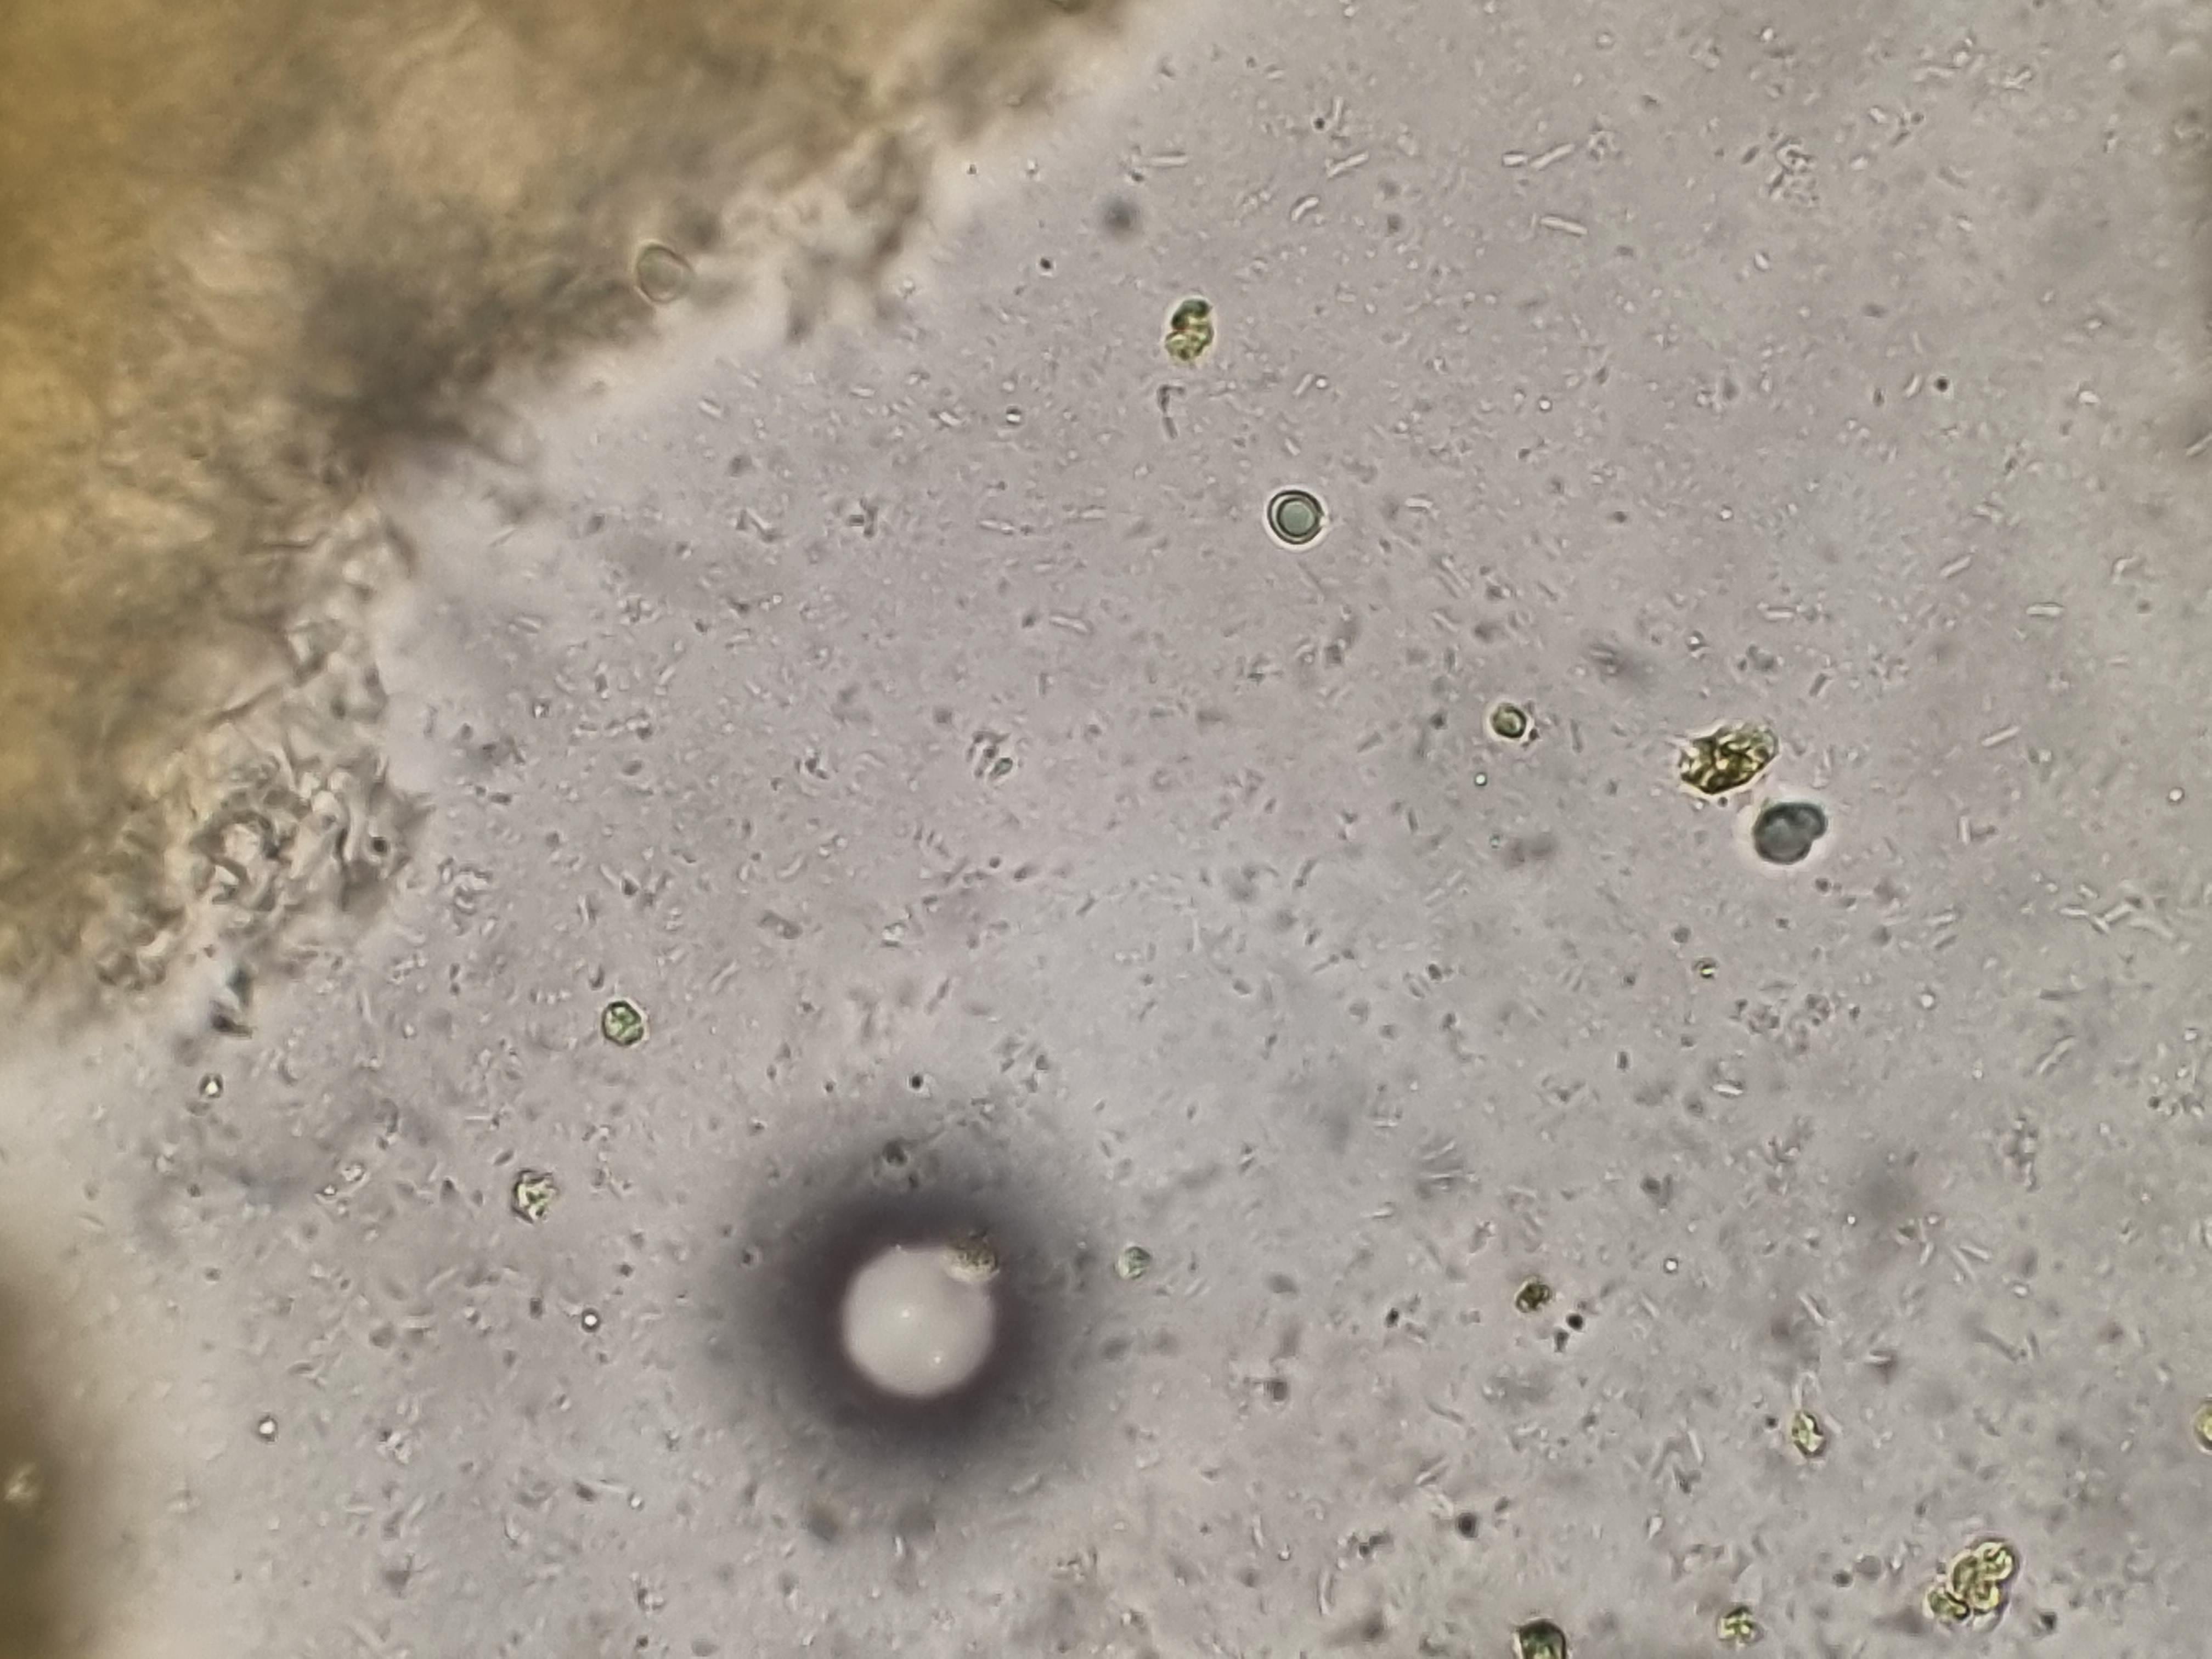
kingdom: Fungi
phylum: Basidiomycota
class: Agaricomycetes
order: Agaricales
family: Clavariaceae
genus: Clavulinopsis
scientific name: Clavulinopsis laeticolor
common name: flamme-køllesvamp
